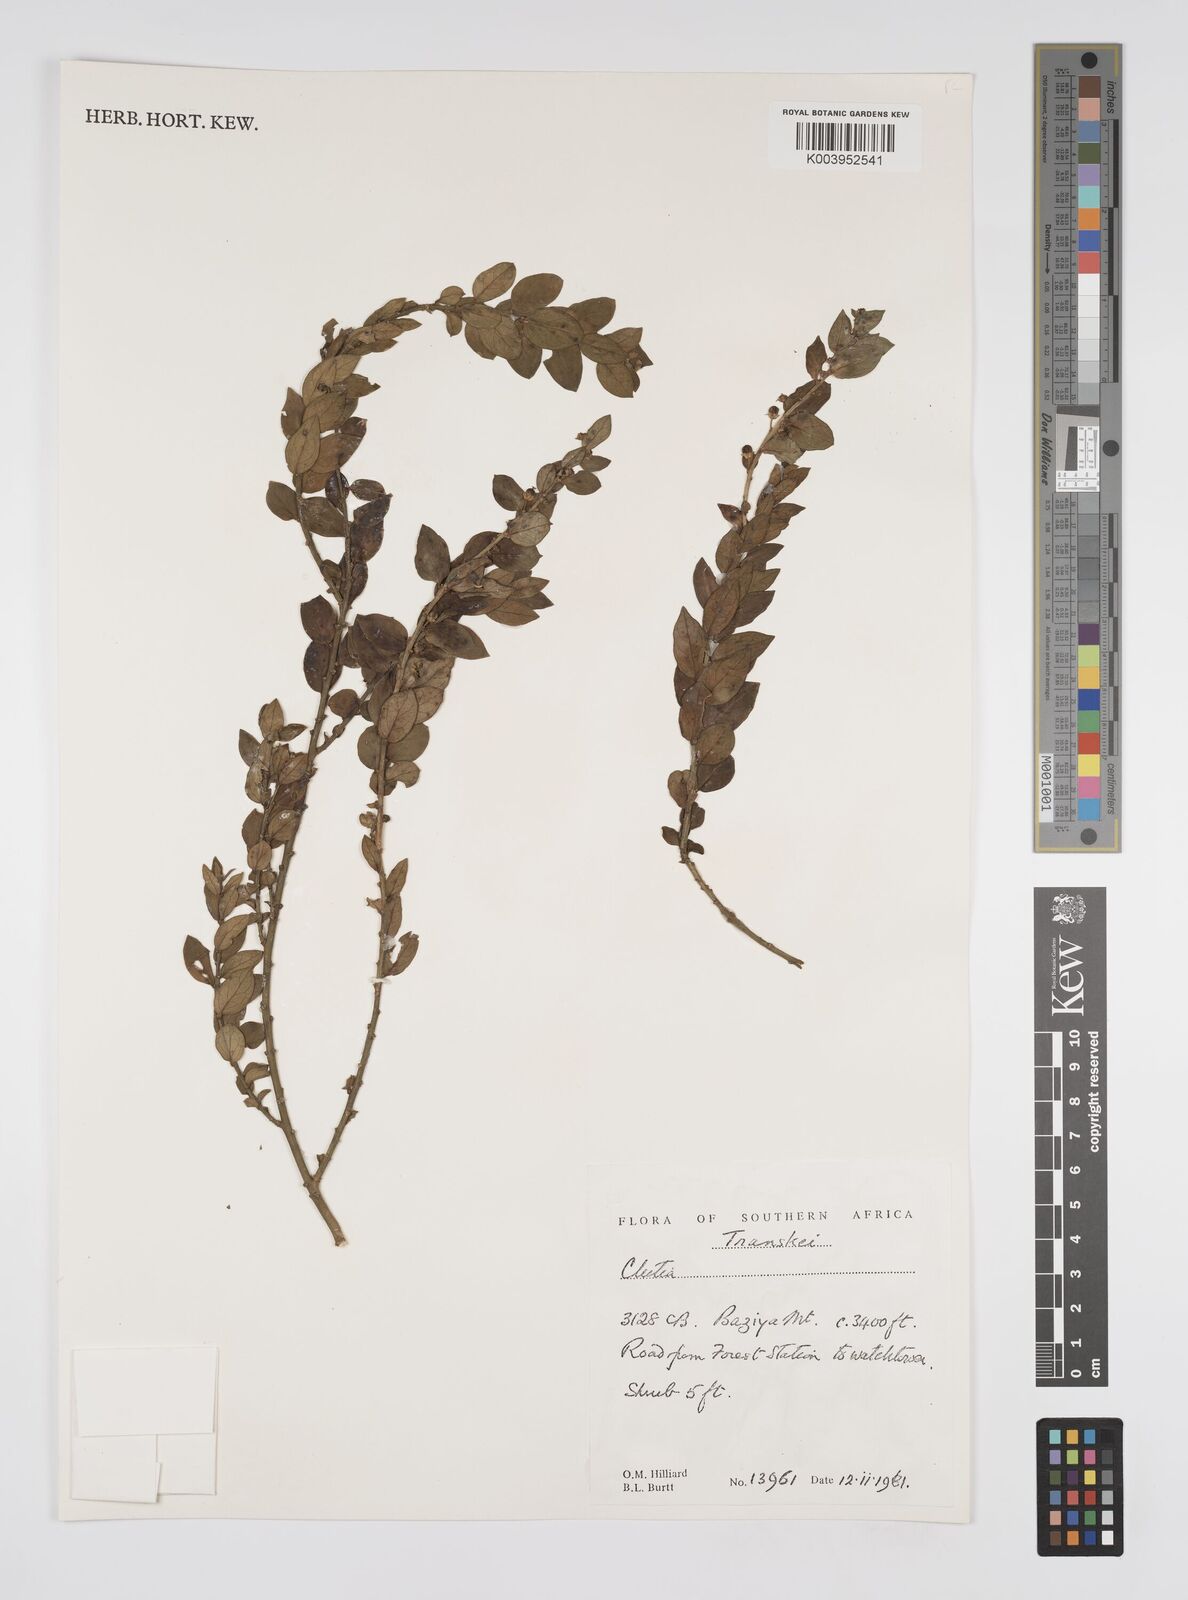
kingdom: Plantae
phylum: Tracheophyta
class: Magnoliopsida
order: Malpighiales
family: Peraceae
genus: Clutia
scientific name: Clutia
